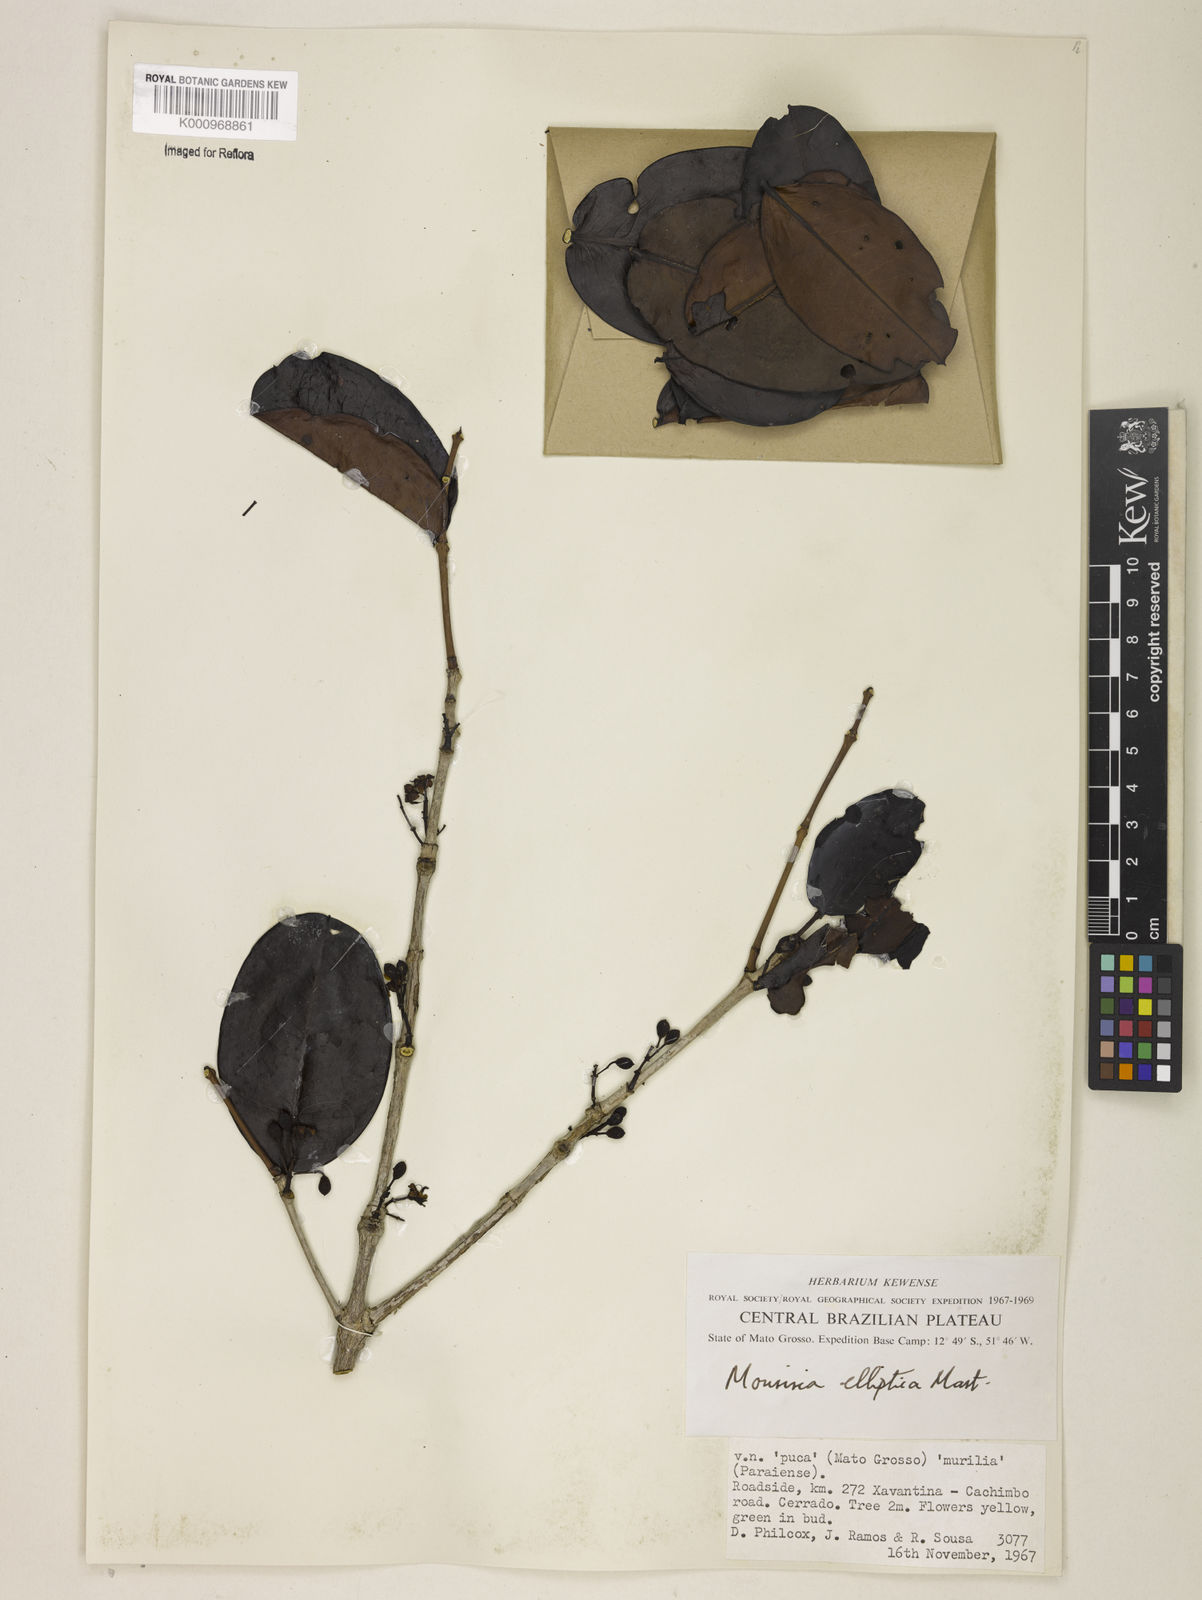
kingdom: Plantae
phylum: Tracheophyta
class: Magnoliopsida
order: Myrtales
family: Melastomataceae
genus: Mouriri
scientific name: Mouriri elliptica
